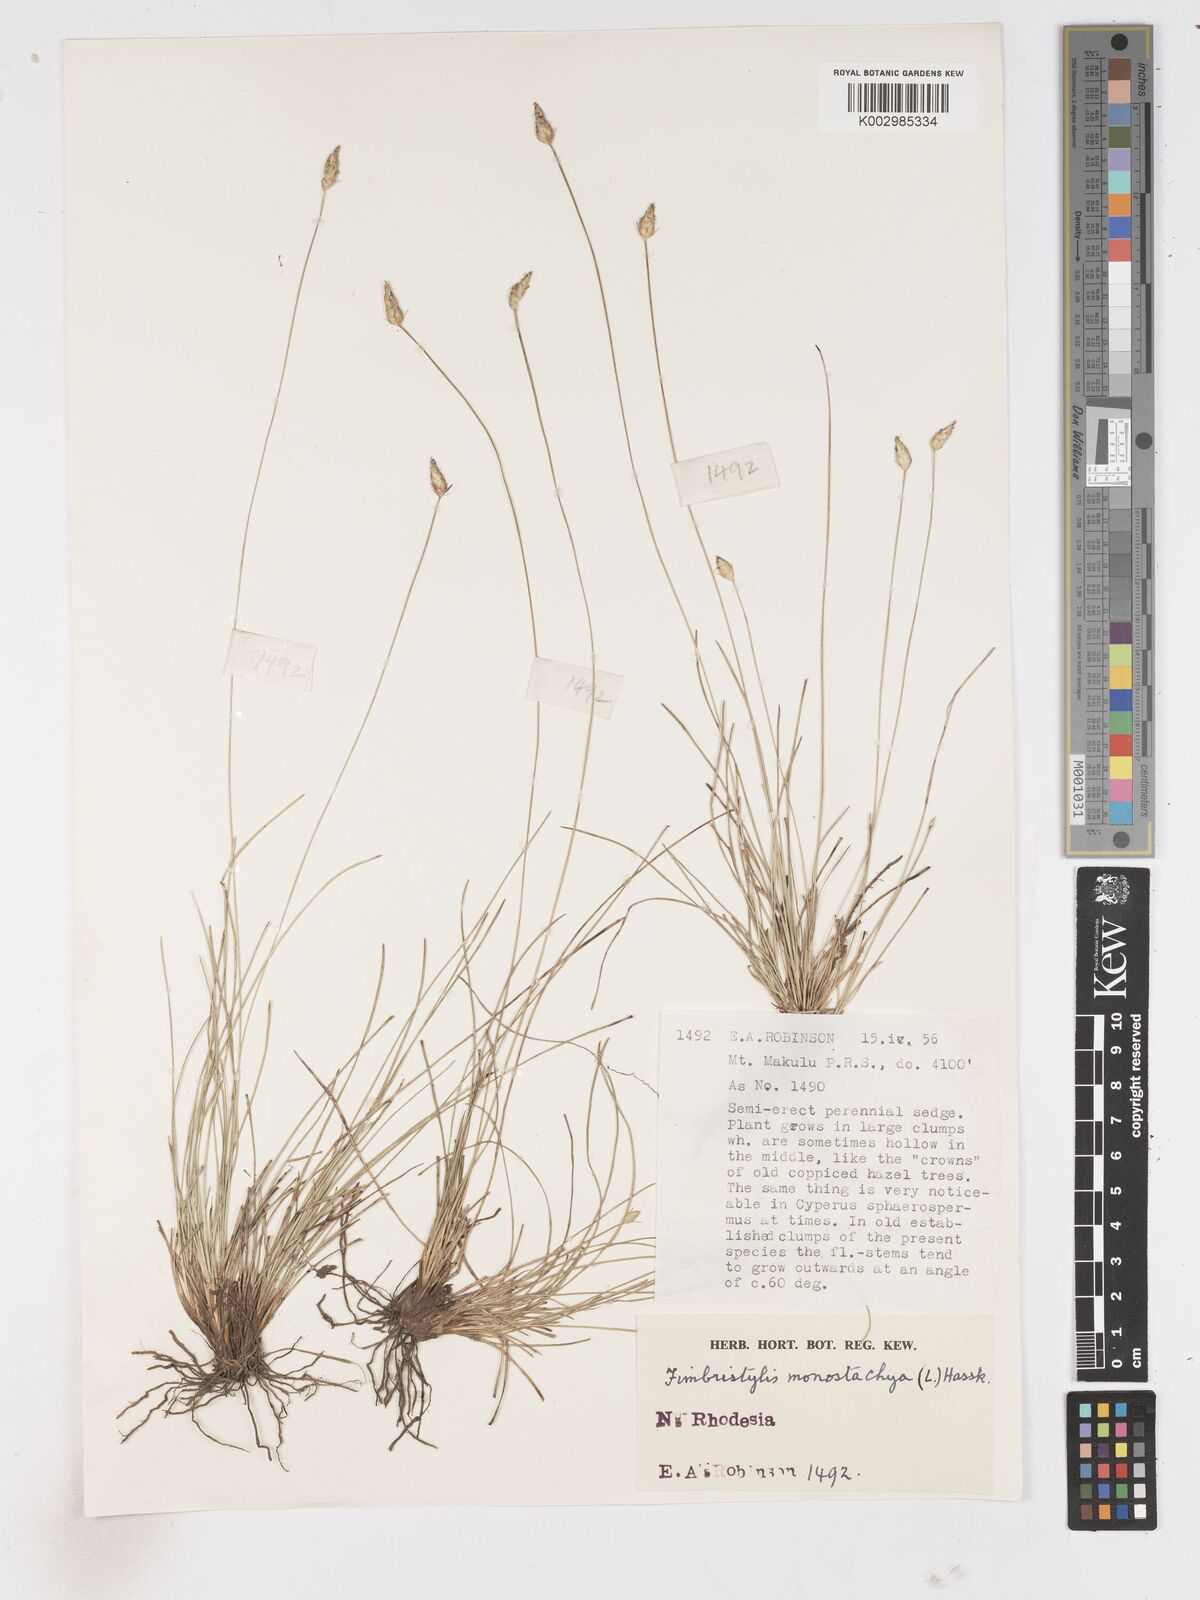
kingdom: Plantae
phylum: Tracheophyta
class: Liliopsida
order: Poales
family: Cyperaceae
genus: Abildgaardia
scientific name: Abildgaardia ovata
